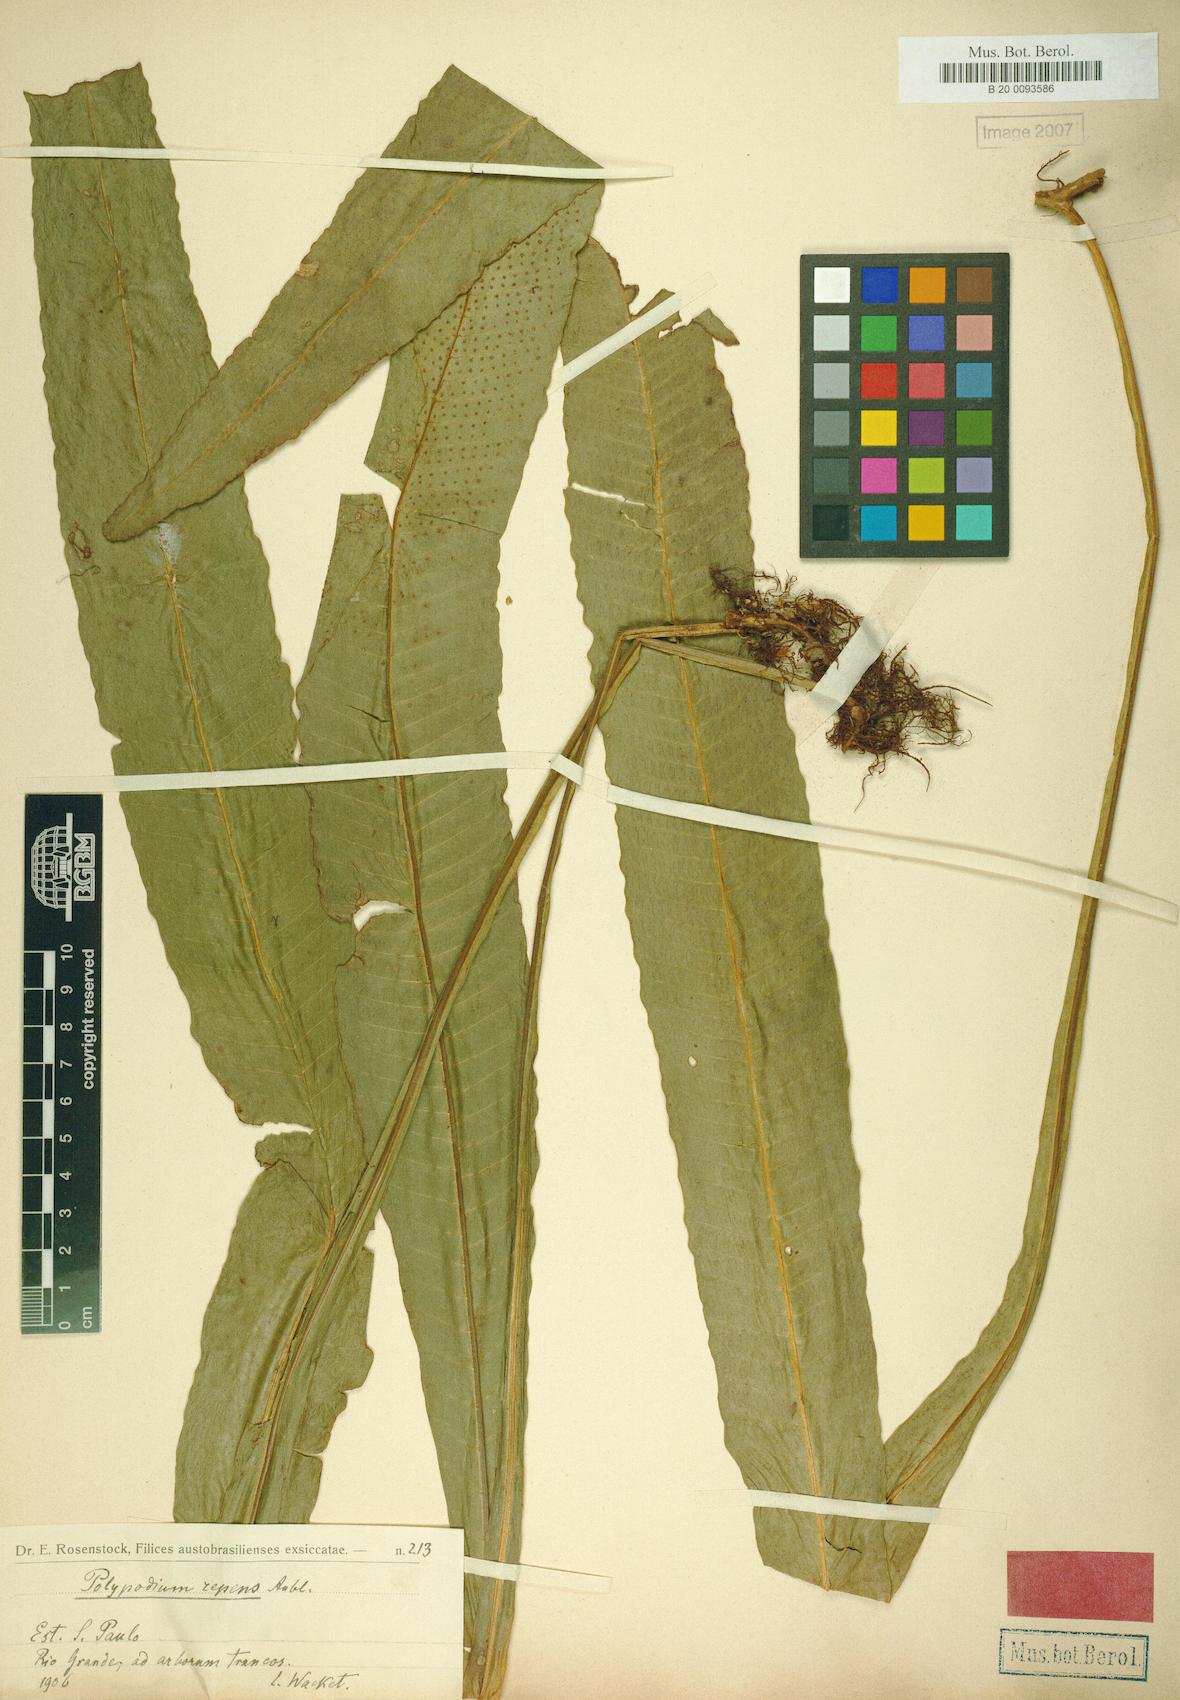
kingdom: Plantae
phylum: Tracheophyta
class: Polypodiopsida
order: Polypodiales
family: Polypodiaceae
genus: Campyloneurum
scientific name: Campyloneurum crispum
